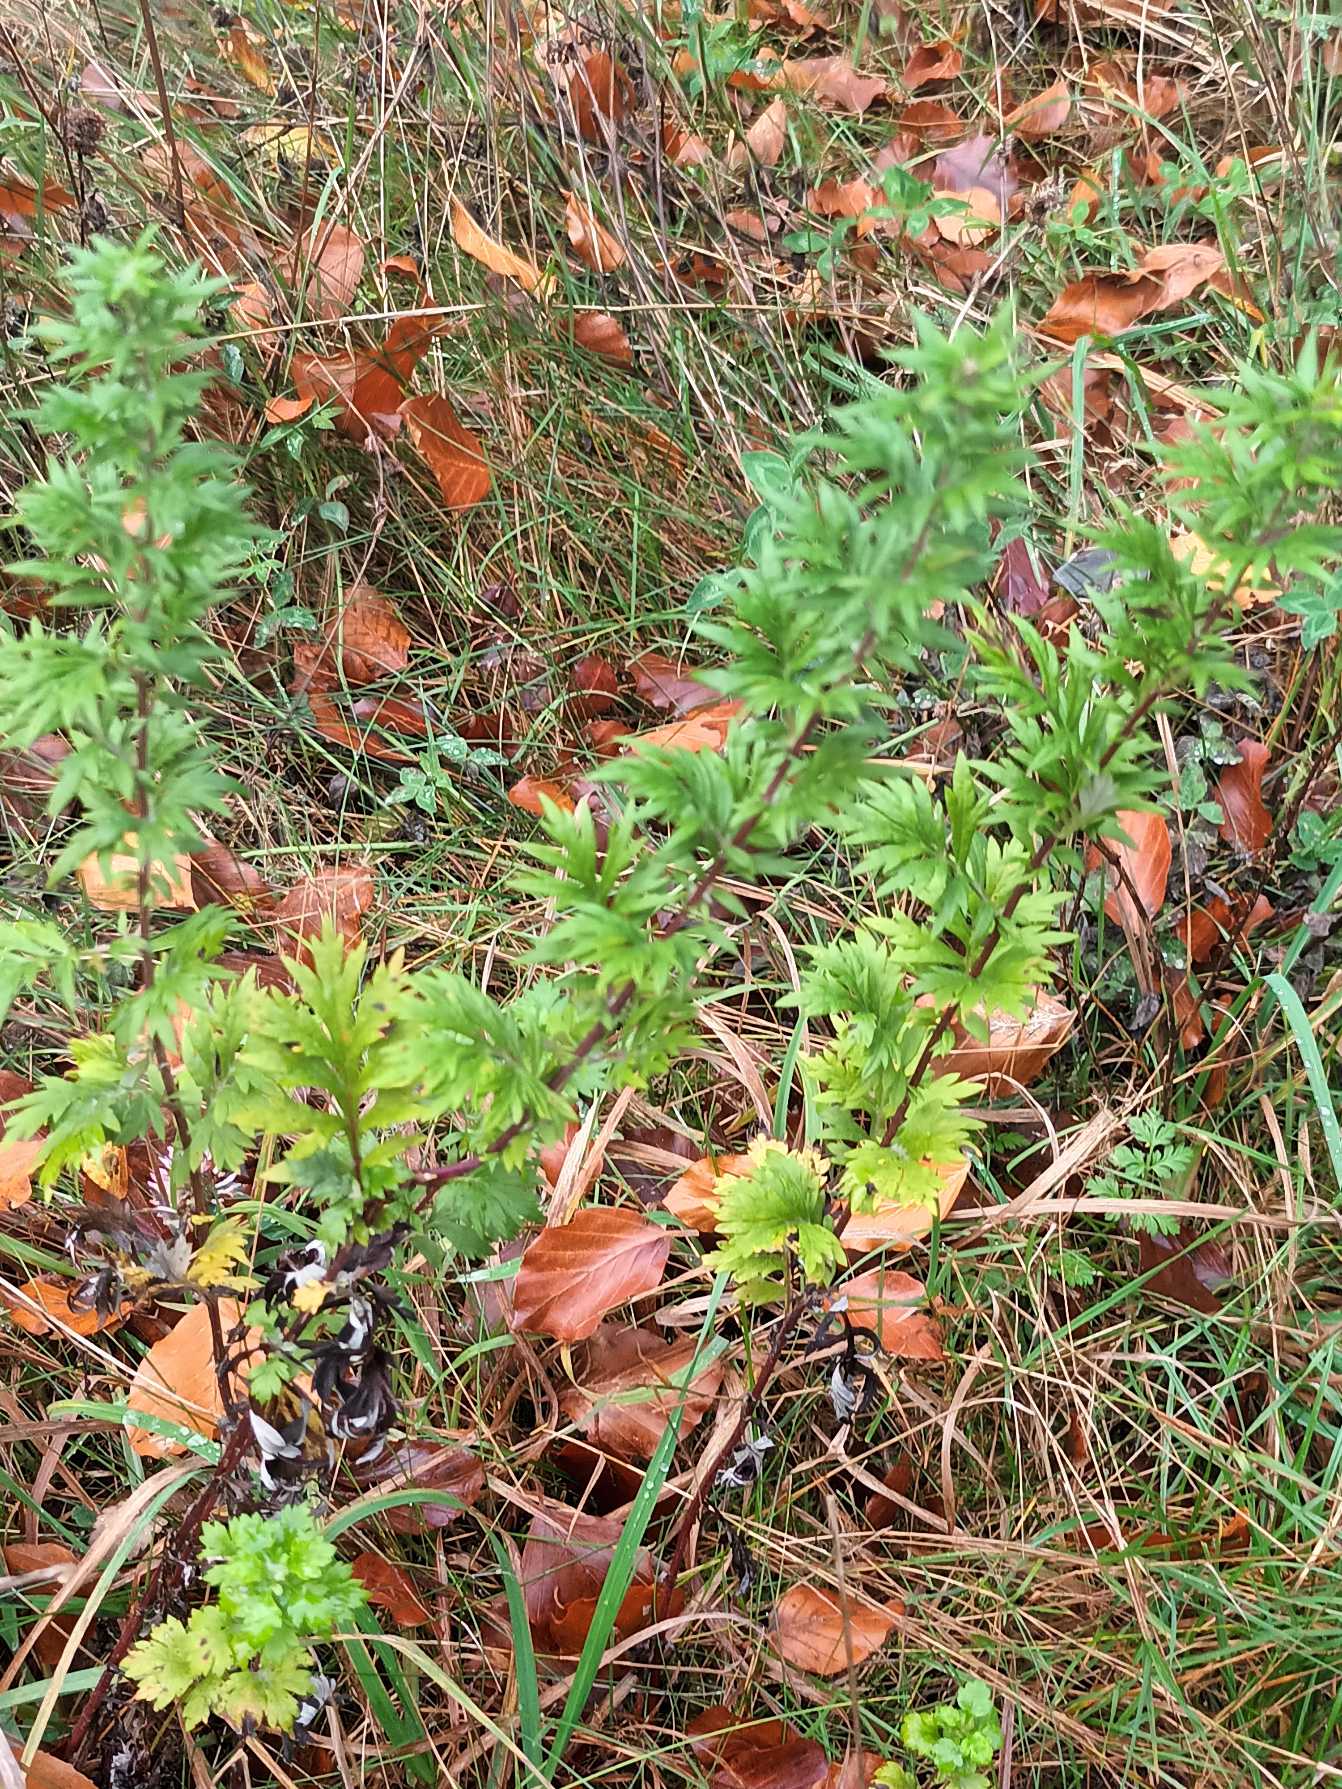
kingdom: Plantae
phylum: Tracheophyta
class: Magnoliopsida
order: Asterales
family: Asteraceae
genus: Artemisia
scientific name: Artemisia vulgaris
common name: Grå-bynke
